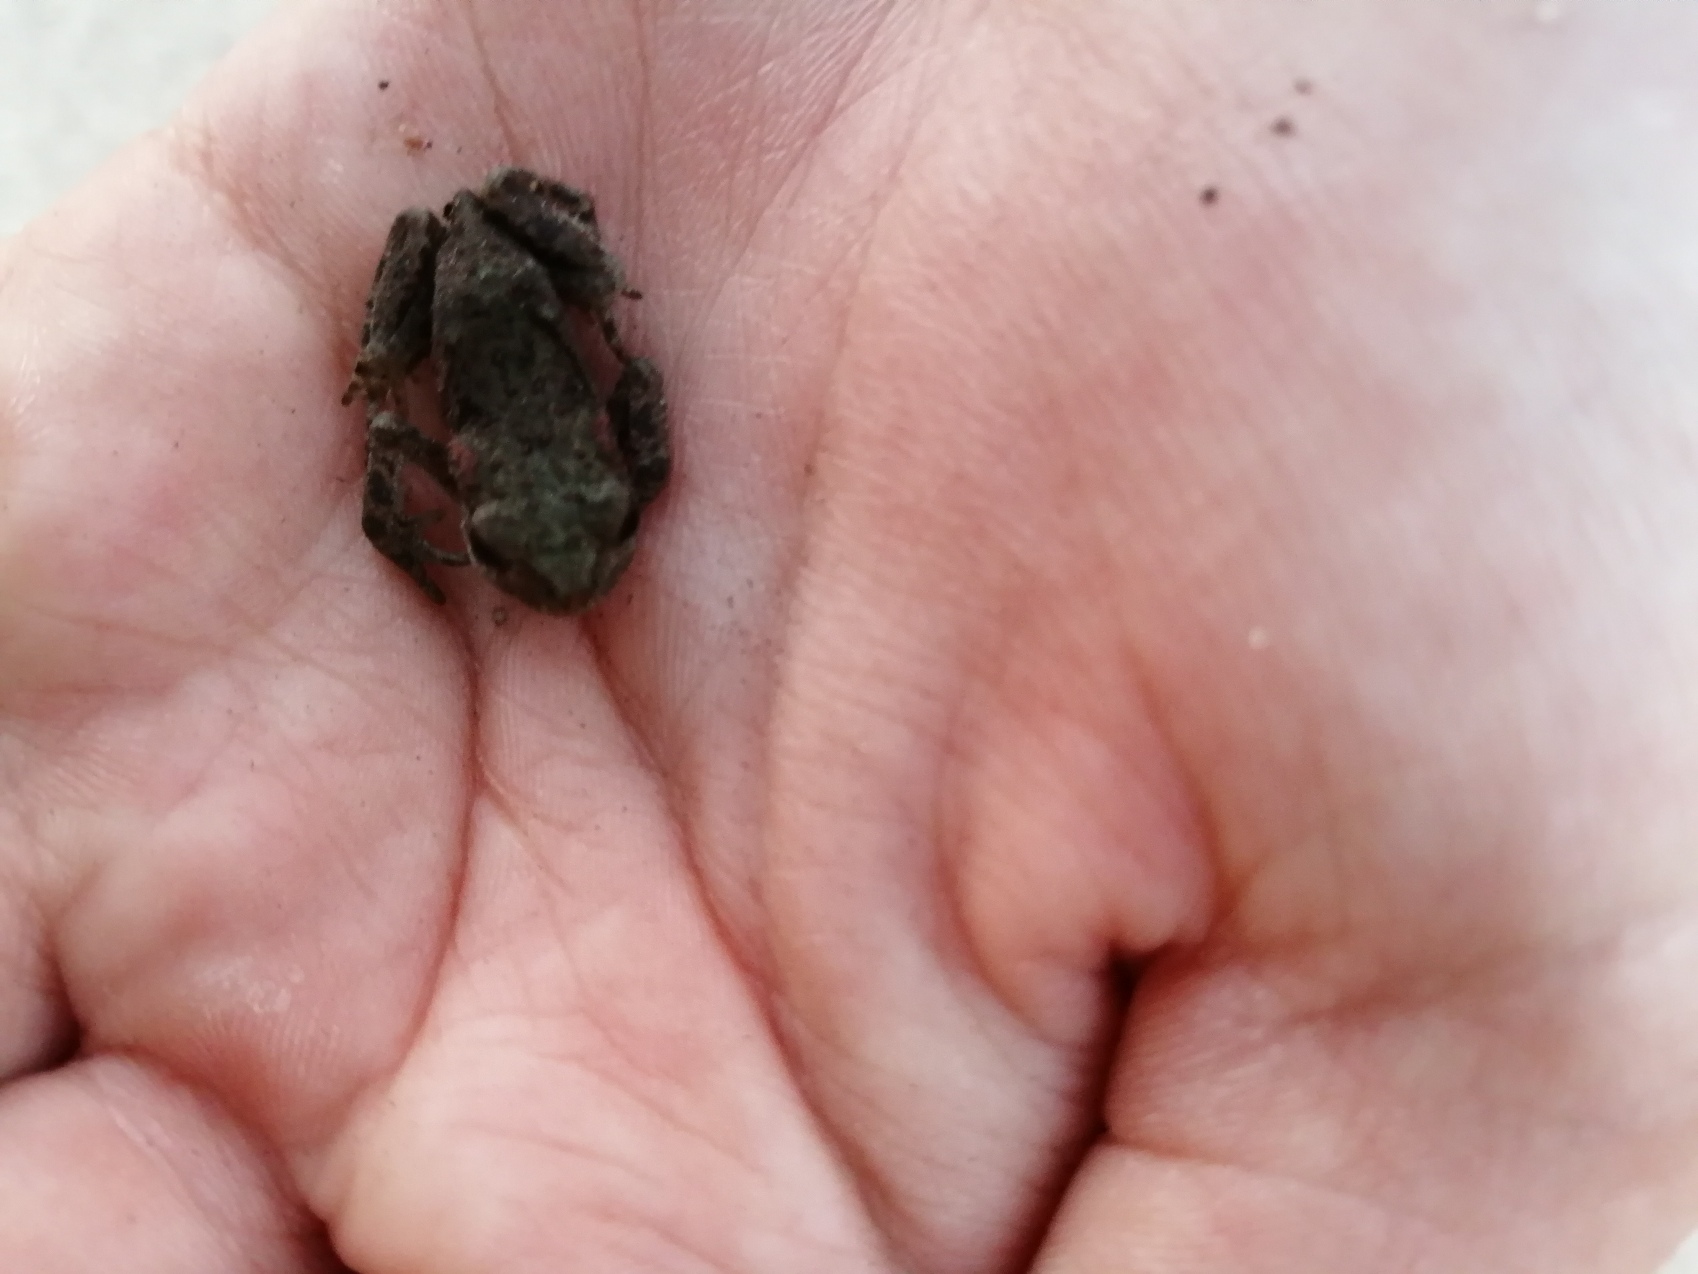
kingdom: Animalia
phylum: Chordata
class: Amphibia
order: Anura
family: Bufonidae
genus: Bufo
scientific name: Bufo bufo
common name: Skrubtudse
